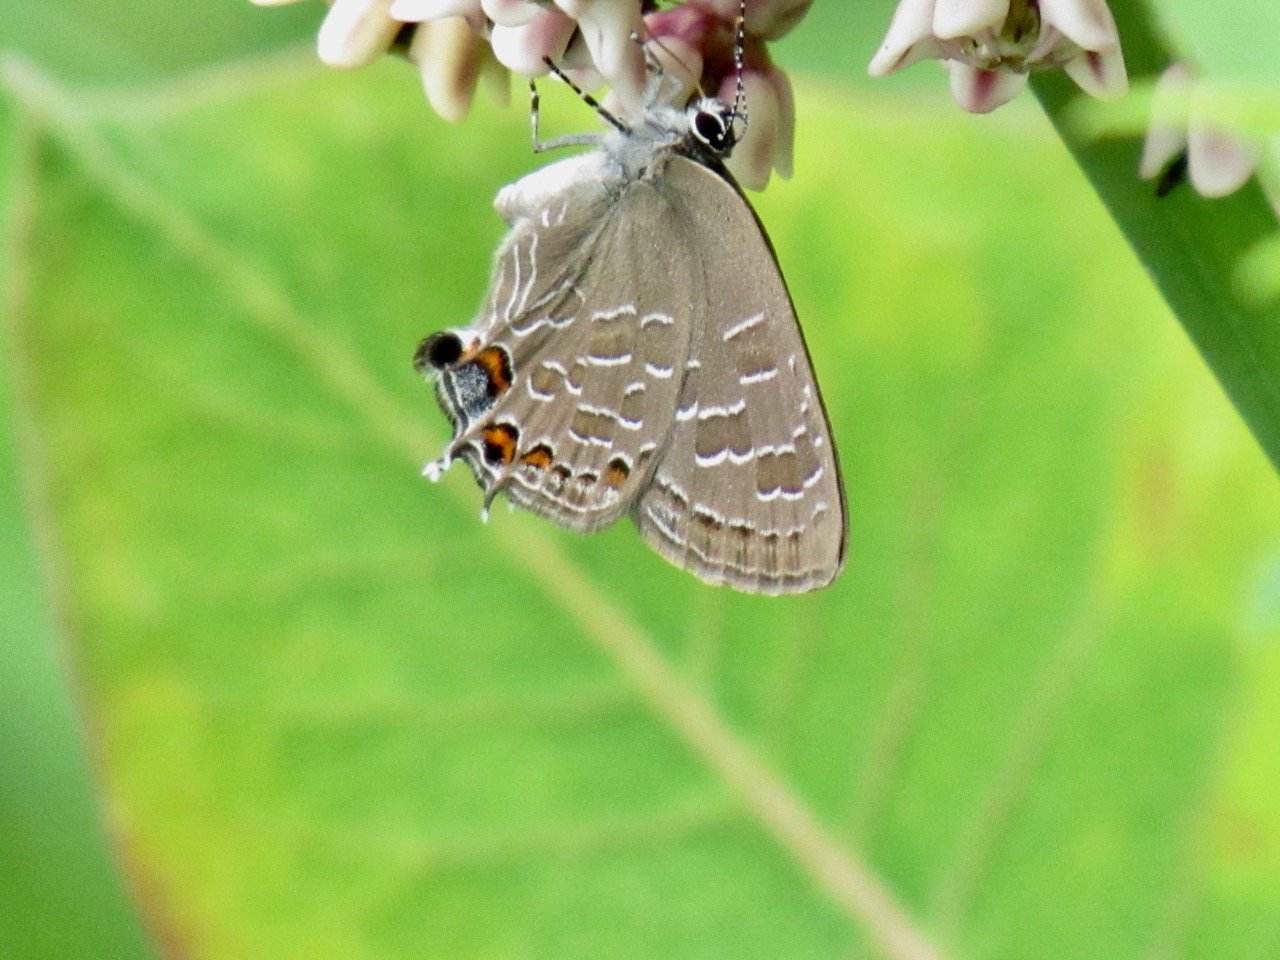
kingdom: Animalia
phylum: Arthropoda
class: Insecta
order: Lepidoptera
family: Lycaenidae
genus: Satyrium
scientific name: Satyrium liparops
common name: Striped Hairstreak
